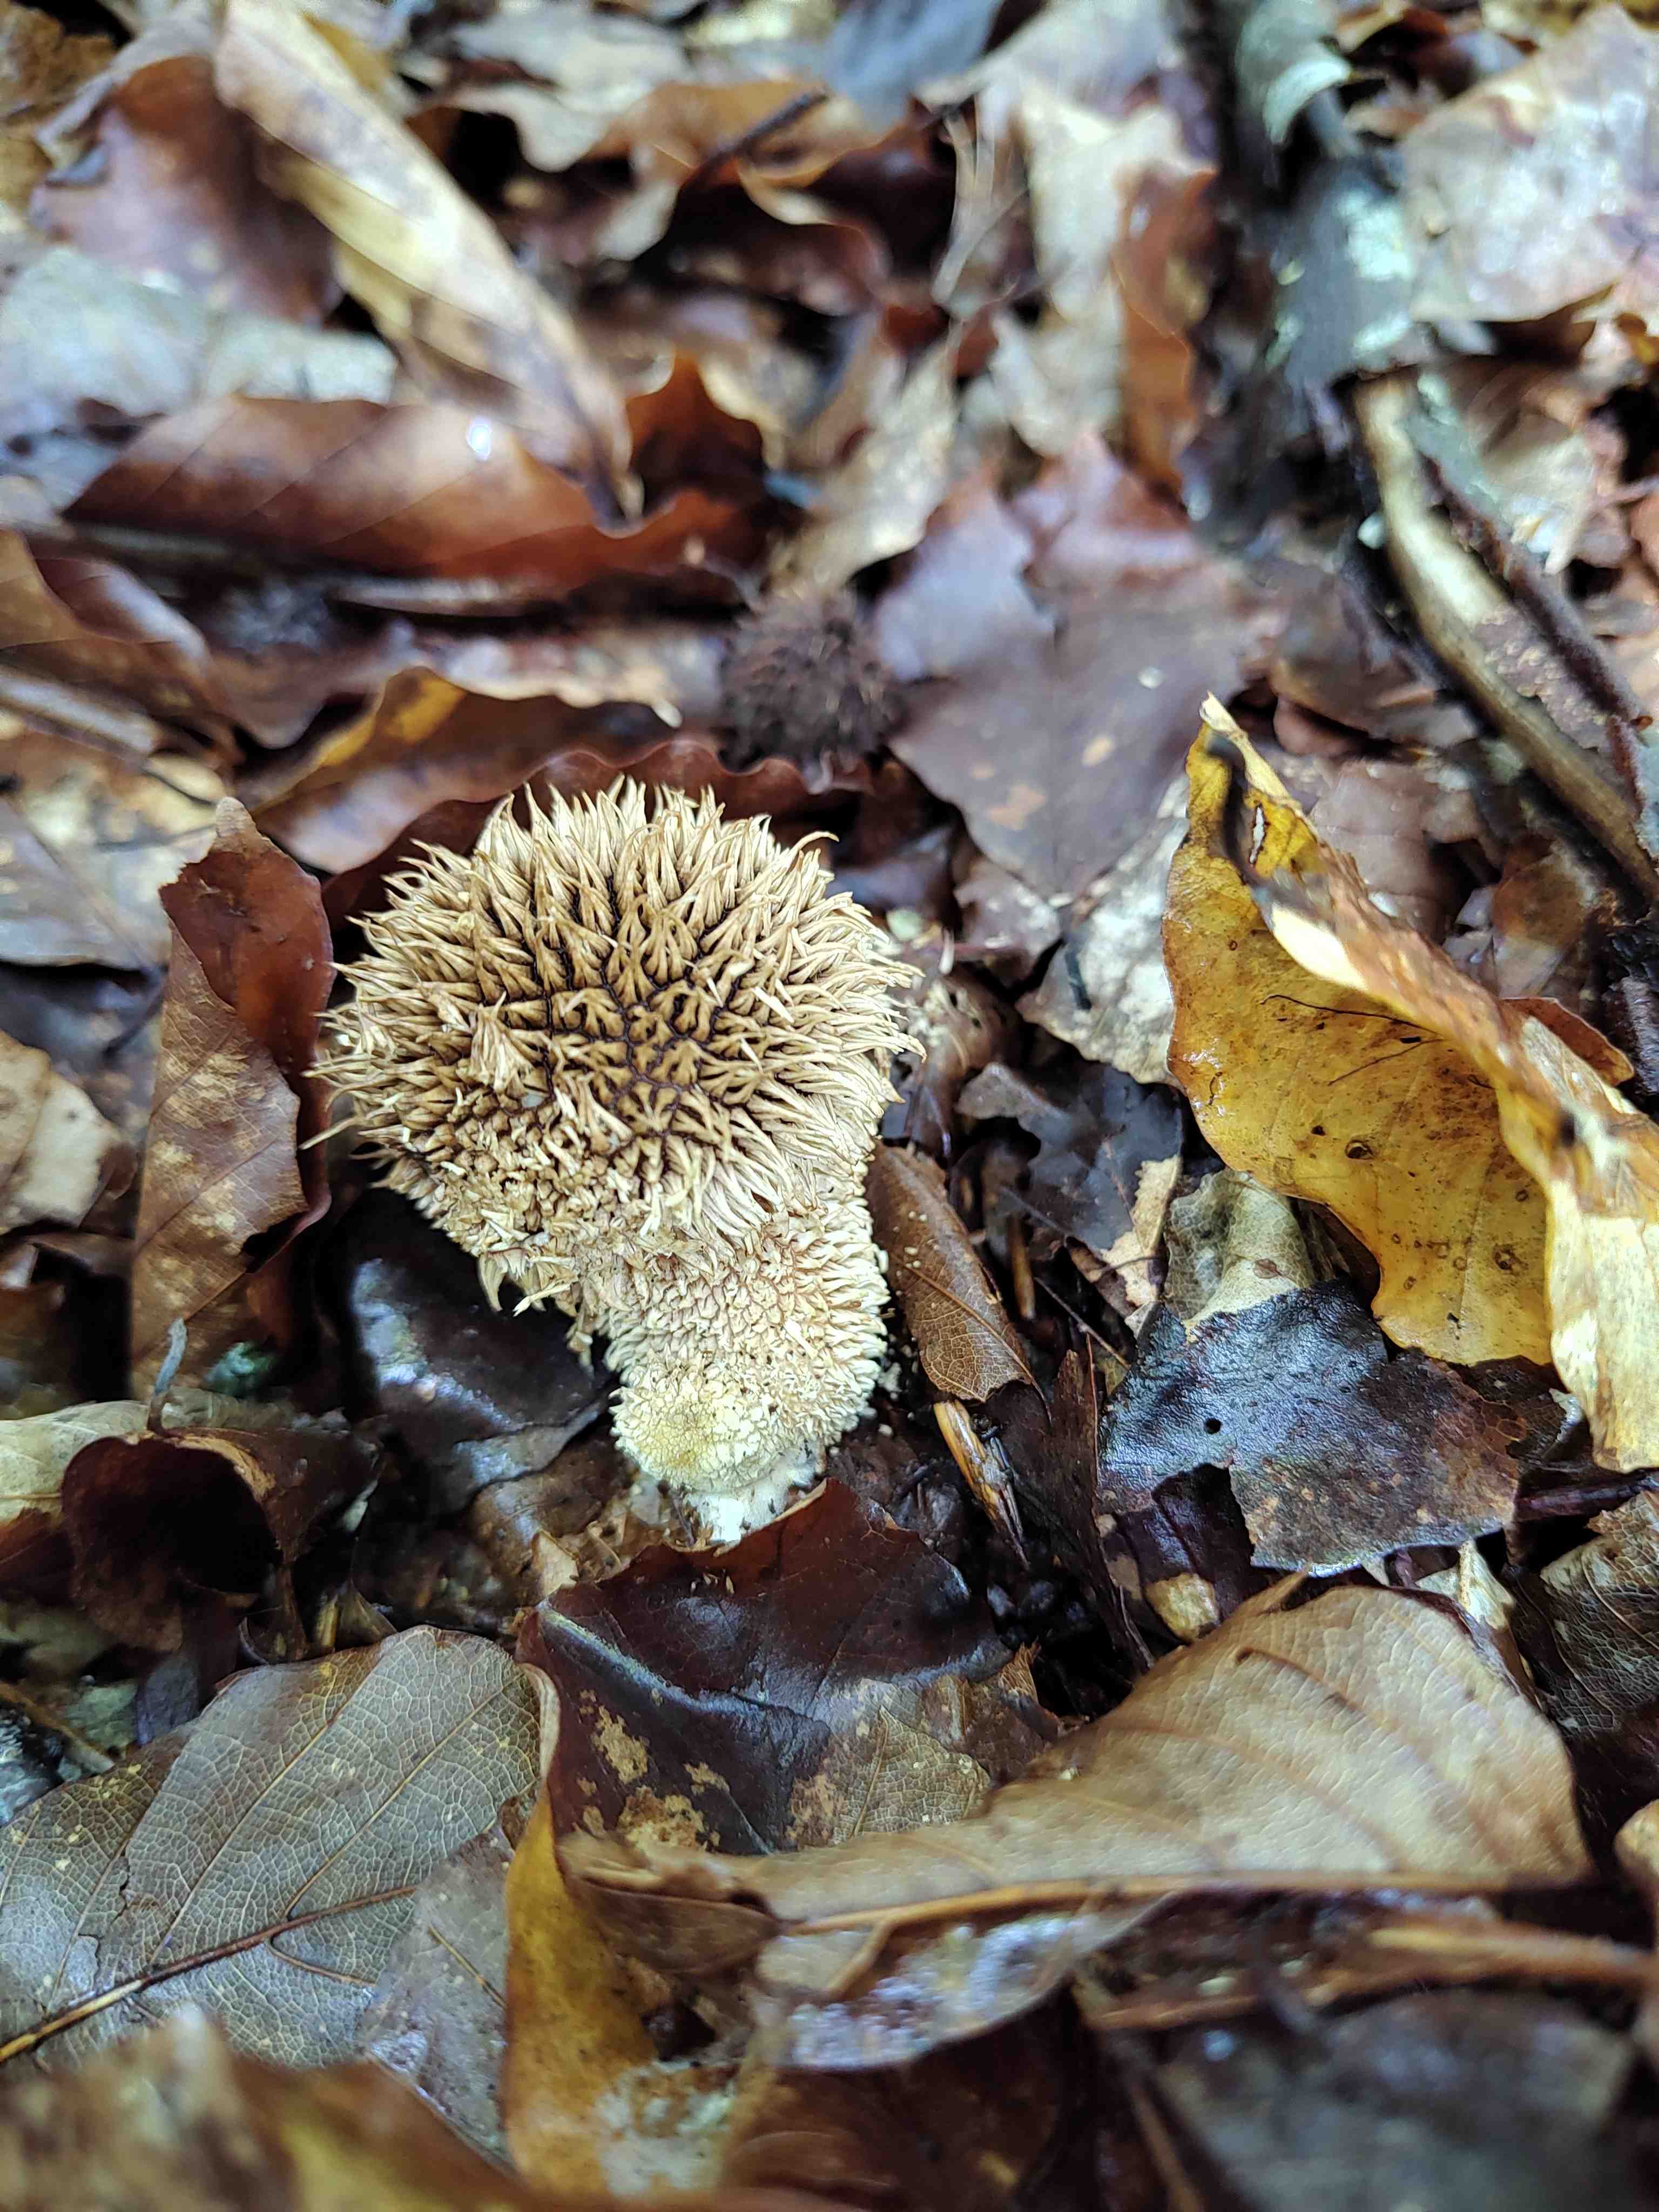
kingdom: Fungi
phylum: Basidiomycota
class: Agaricomycetes
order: Agaricales
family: Lycoperdaceae
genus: Lycoperdon
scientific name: Lycoperdon echinatum
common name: pindsvine-støvbold
